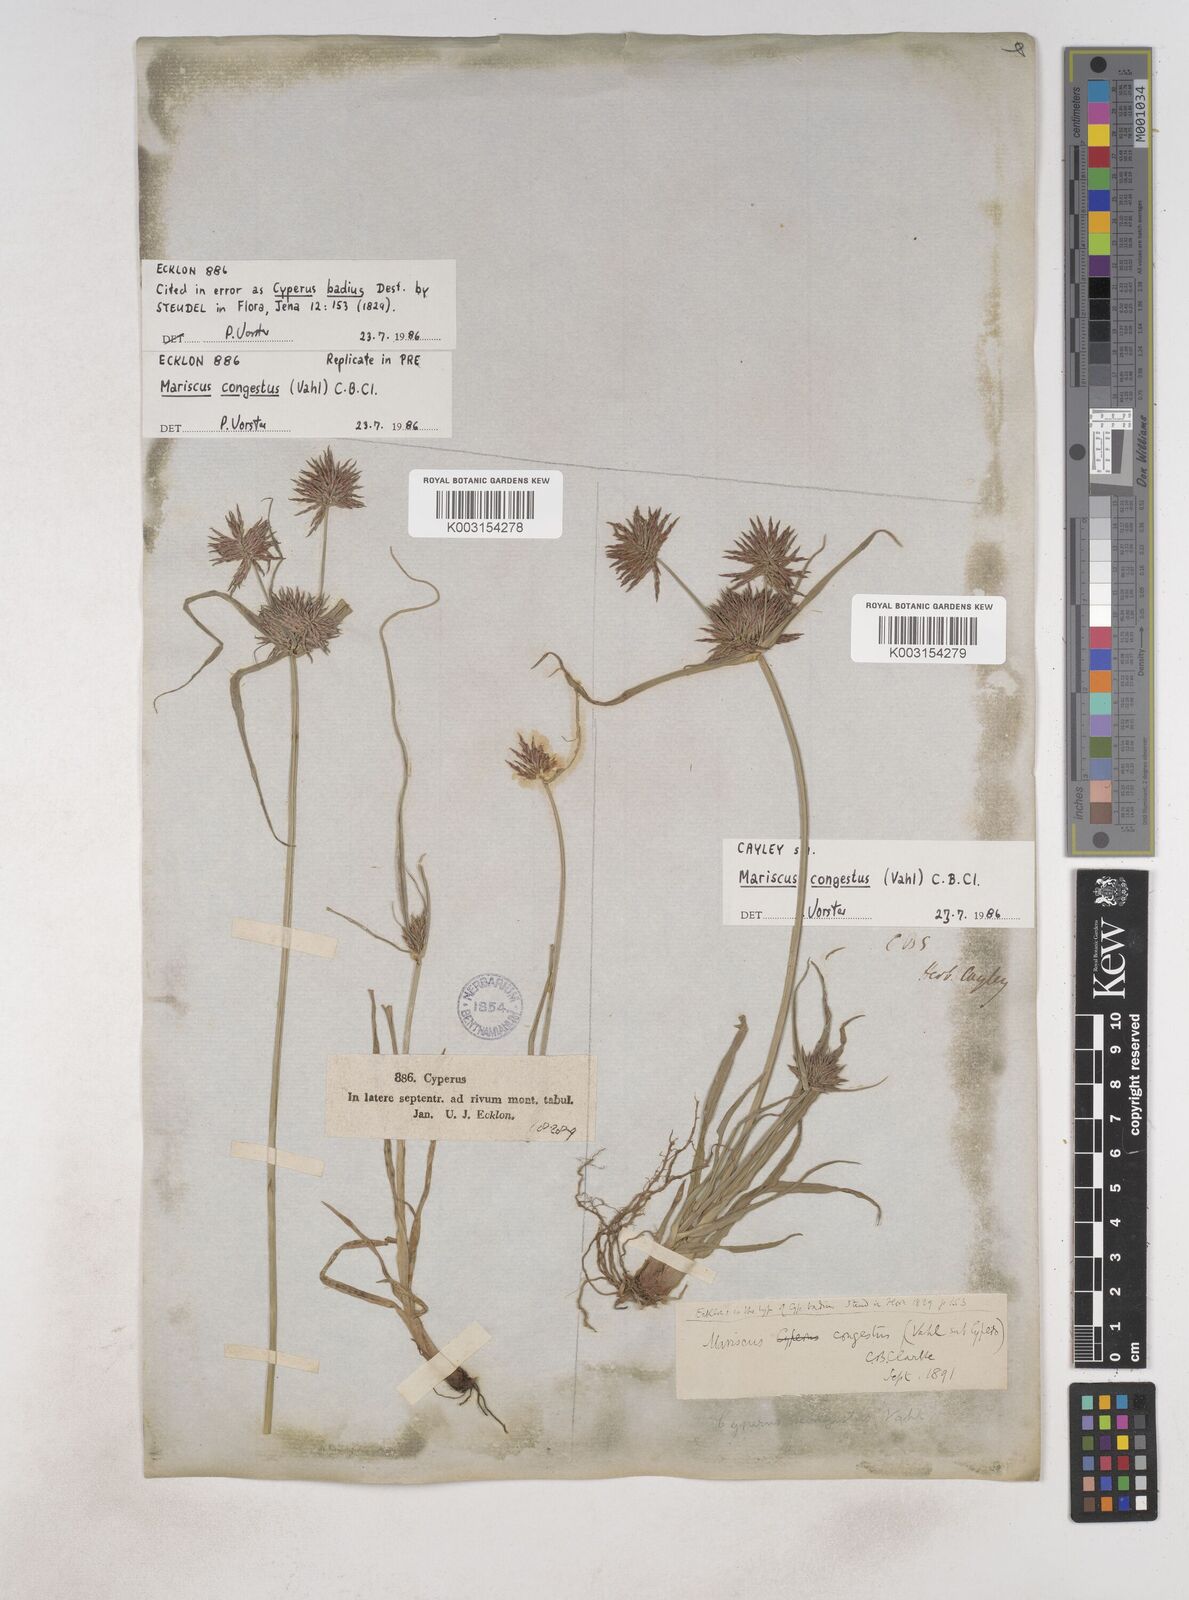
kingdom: Plantae
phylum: Tracheophyta
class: Liliopsida
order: Poales
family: Cyperaceae
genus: Cyperus
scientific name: Cyperus congestus
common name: Dense flat sedge
